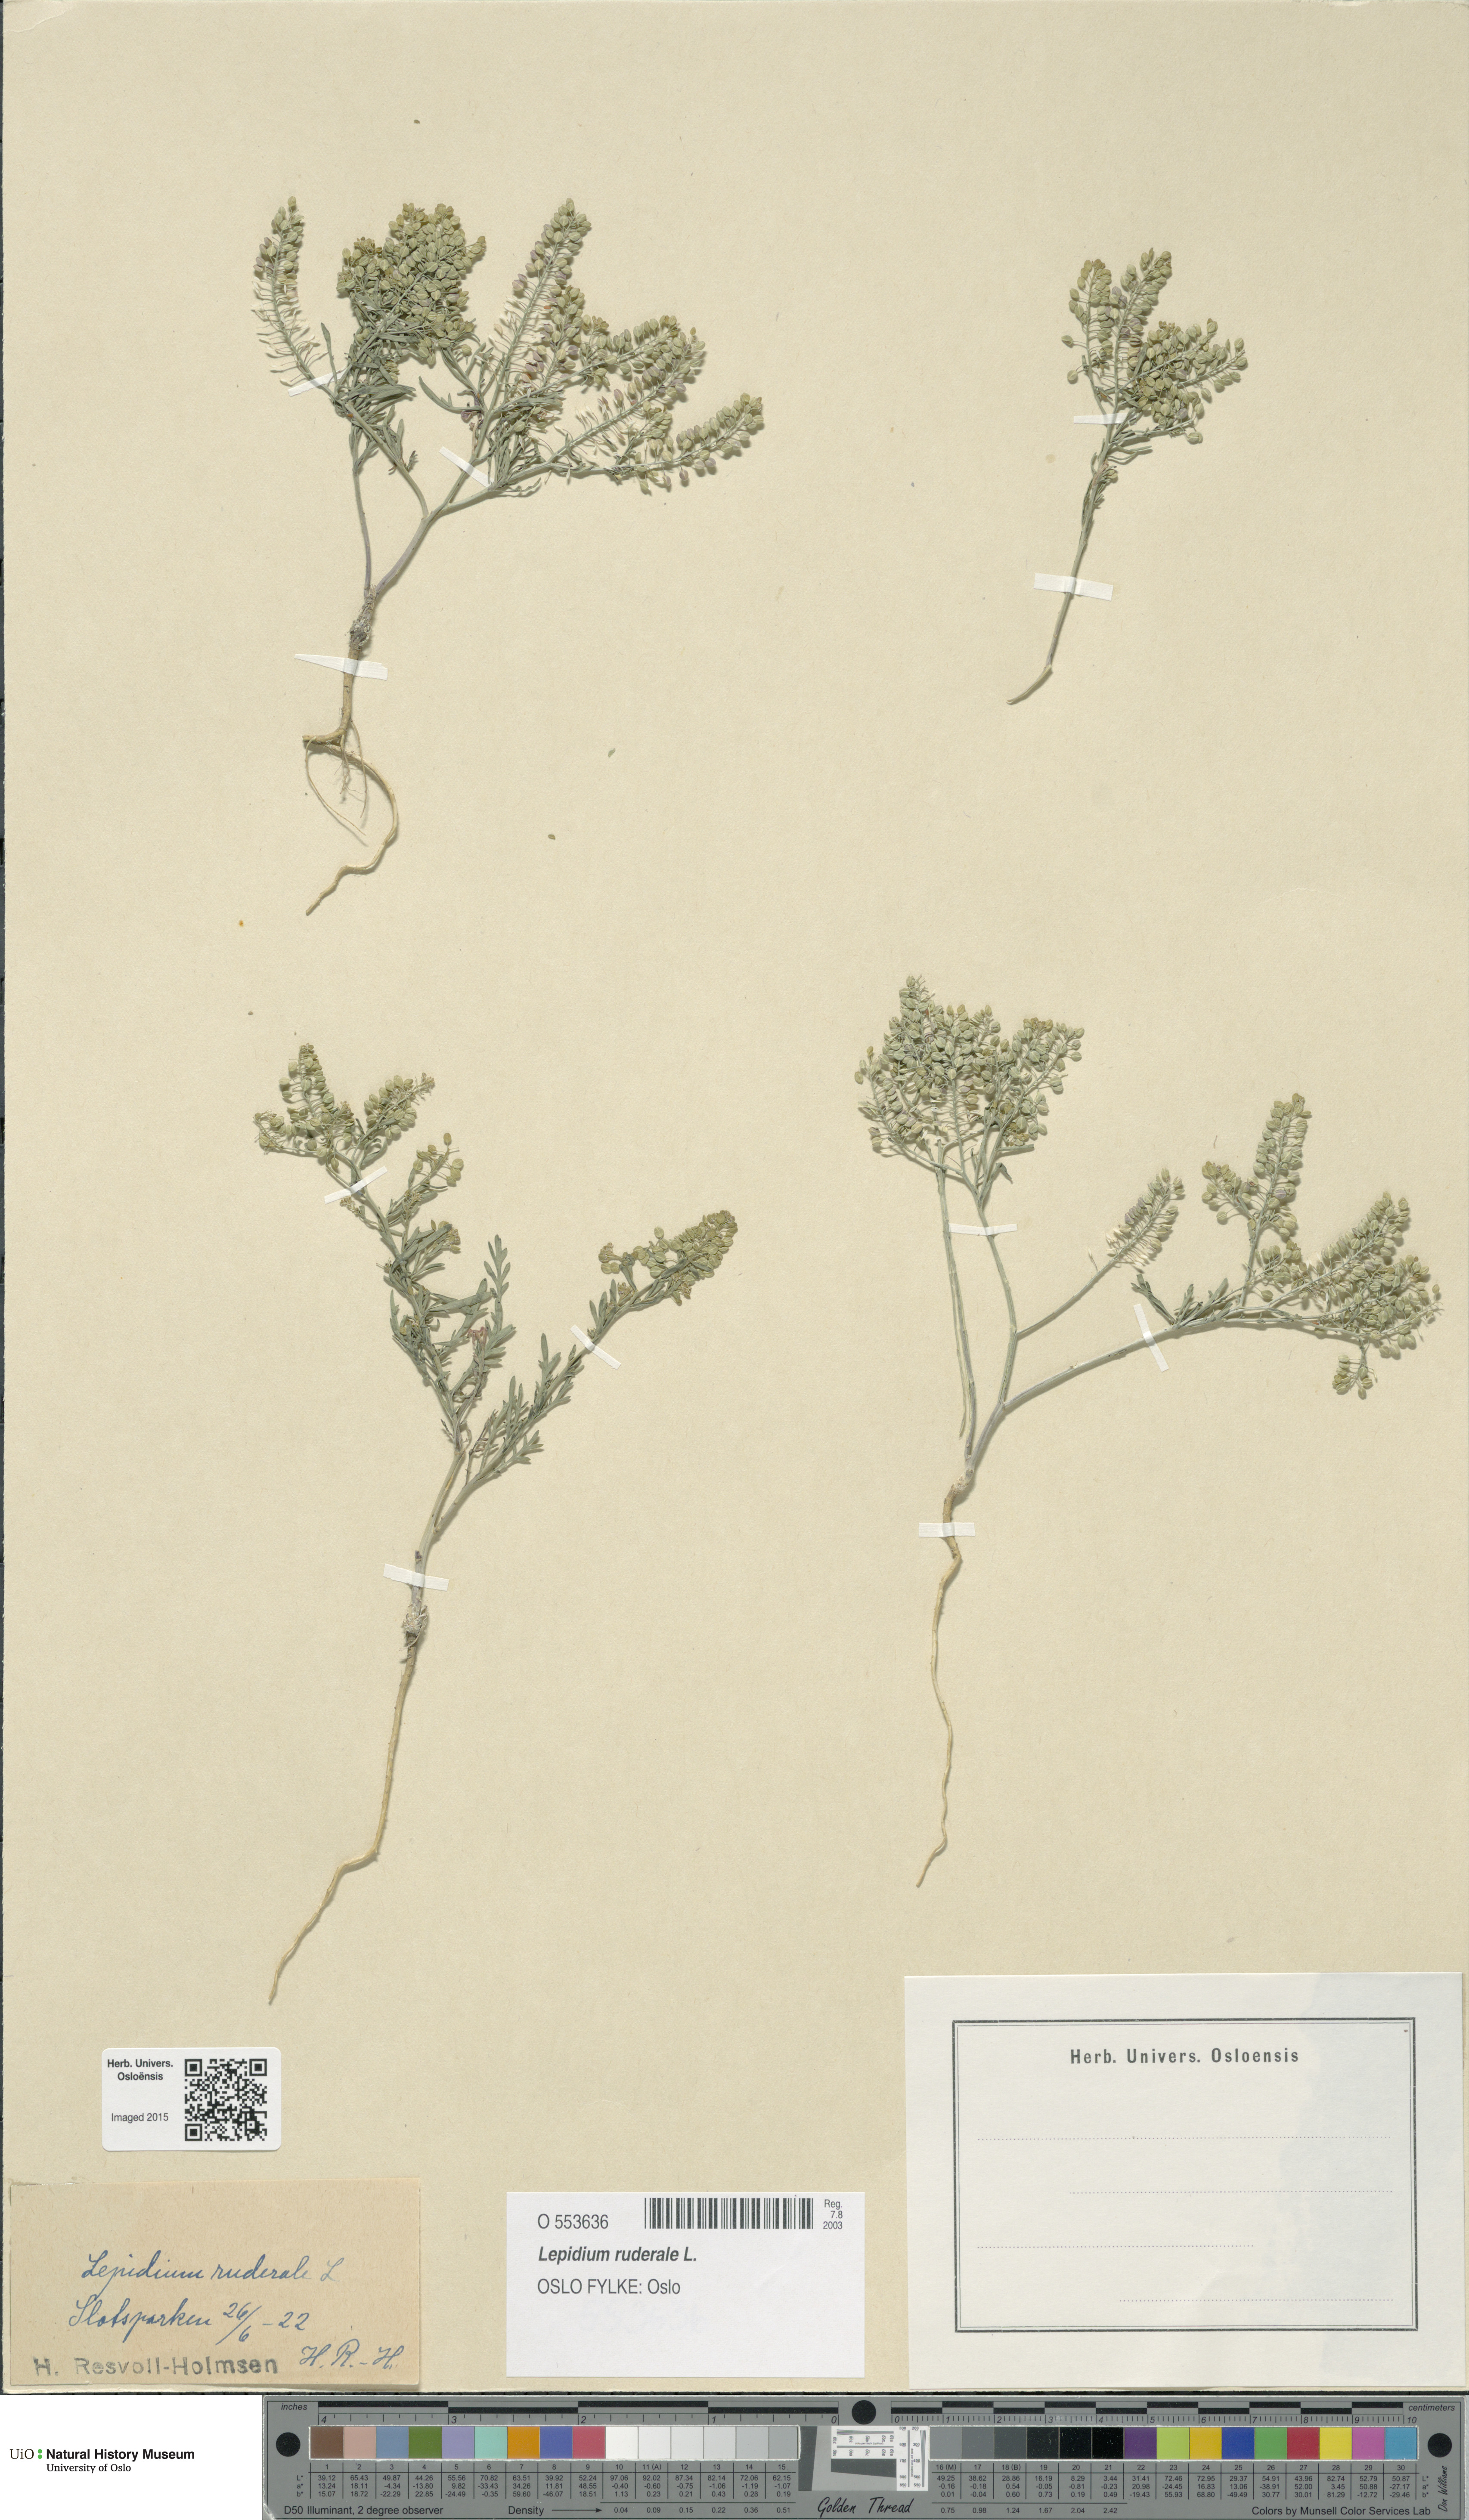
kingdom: Plantae
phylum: Tracheophyta
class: Magnoliopsida
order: Brassicales
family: Brassicaceae
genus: Lepidium
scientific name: Lepidium ruderale
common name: Narrow-leaved pepperwort
